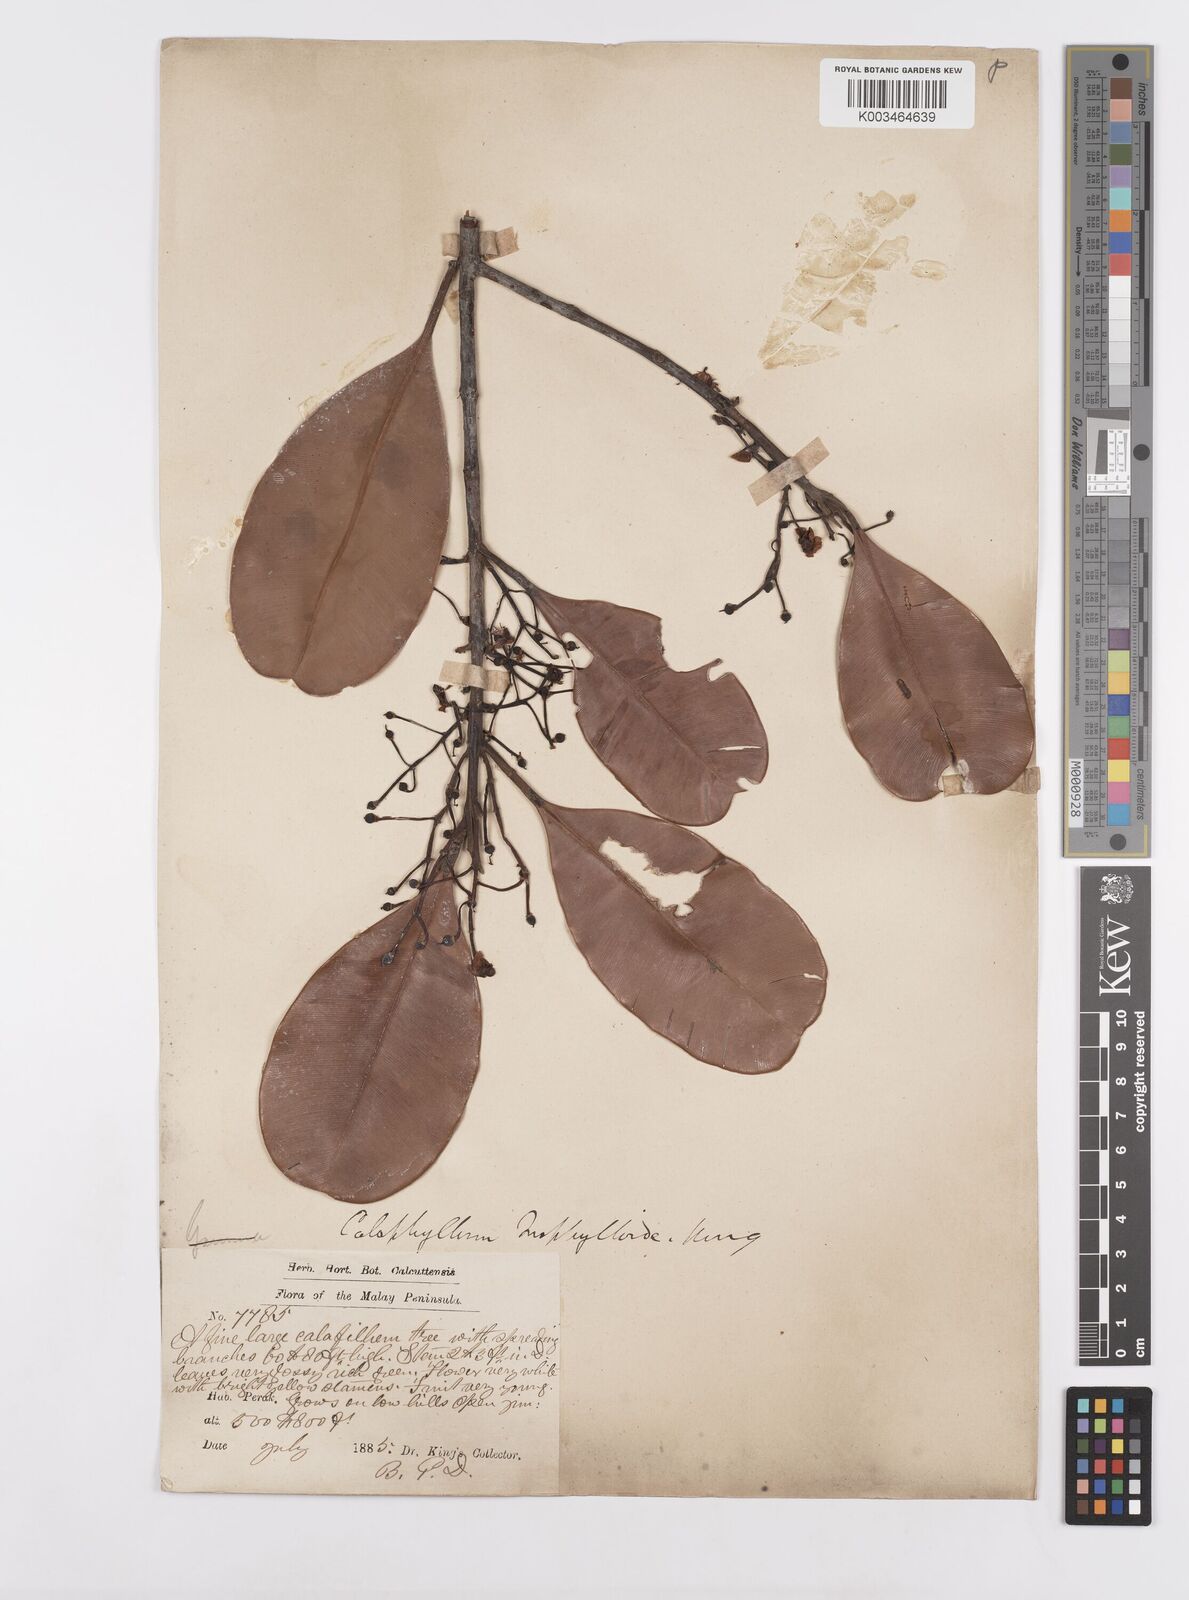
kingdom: Plantae
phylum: Tracheophyta
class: Magnoliopsida
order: Malpighiales
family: Calophyllaceae
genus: Calophyllum
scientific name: Calophyllum teysmannii
